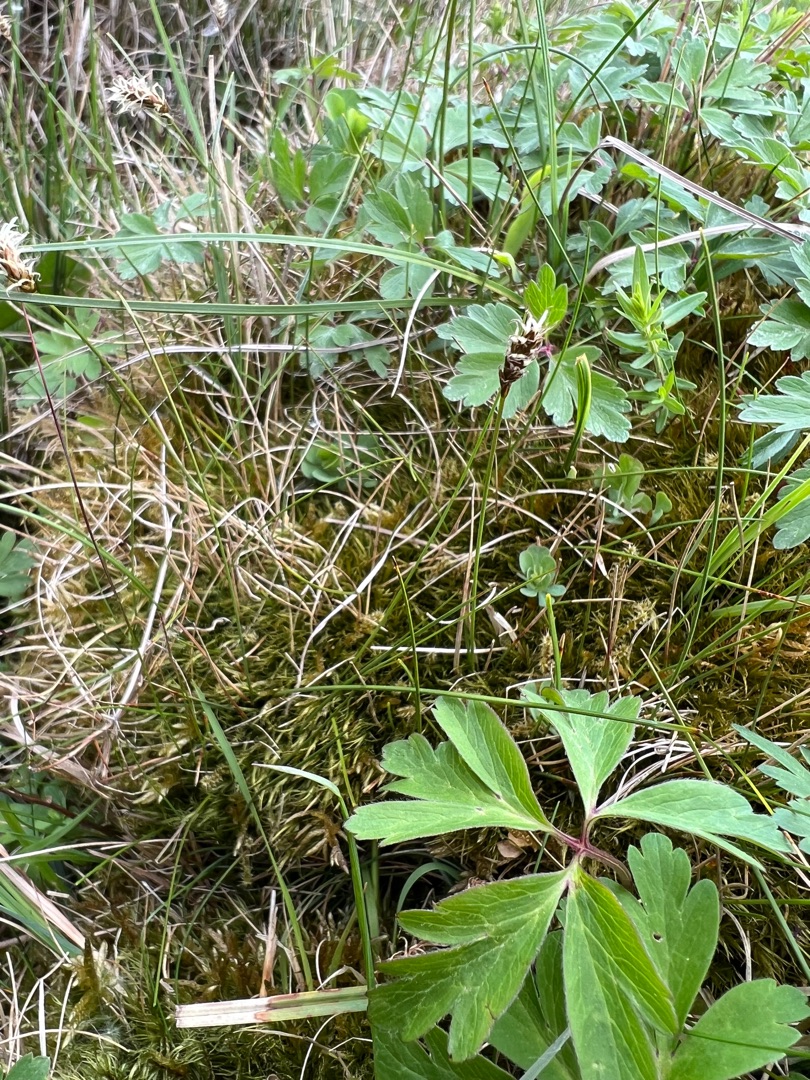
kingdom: Plantae
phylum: Tracheophyta
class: Liliopsida
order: Poales
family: Cyperaceae
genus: Carex
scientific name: Carex dioica
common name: Tvebo star
